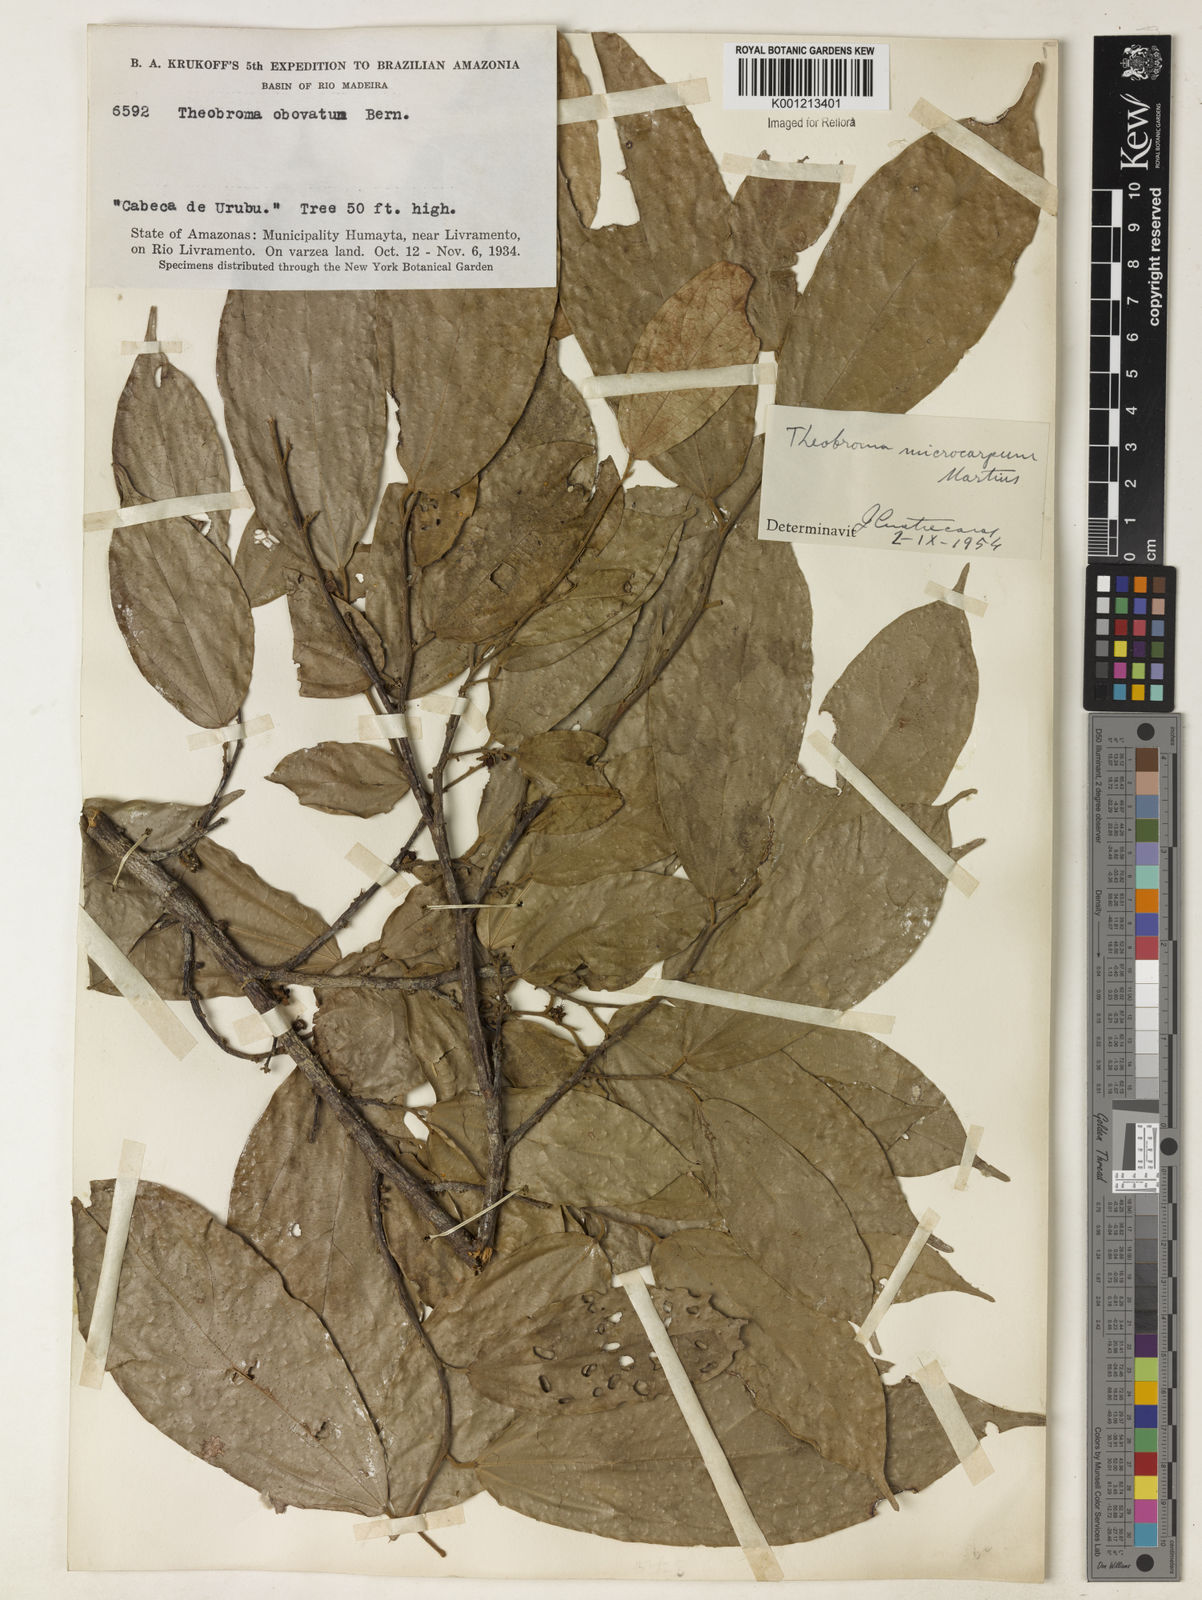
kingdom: Plantae
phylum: Tracheophyta
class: Magnoliopsida
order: Malvales
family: Malvaceae
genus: Theobroma
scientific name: Theobroma microcarpum
